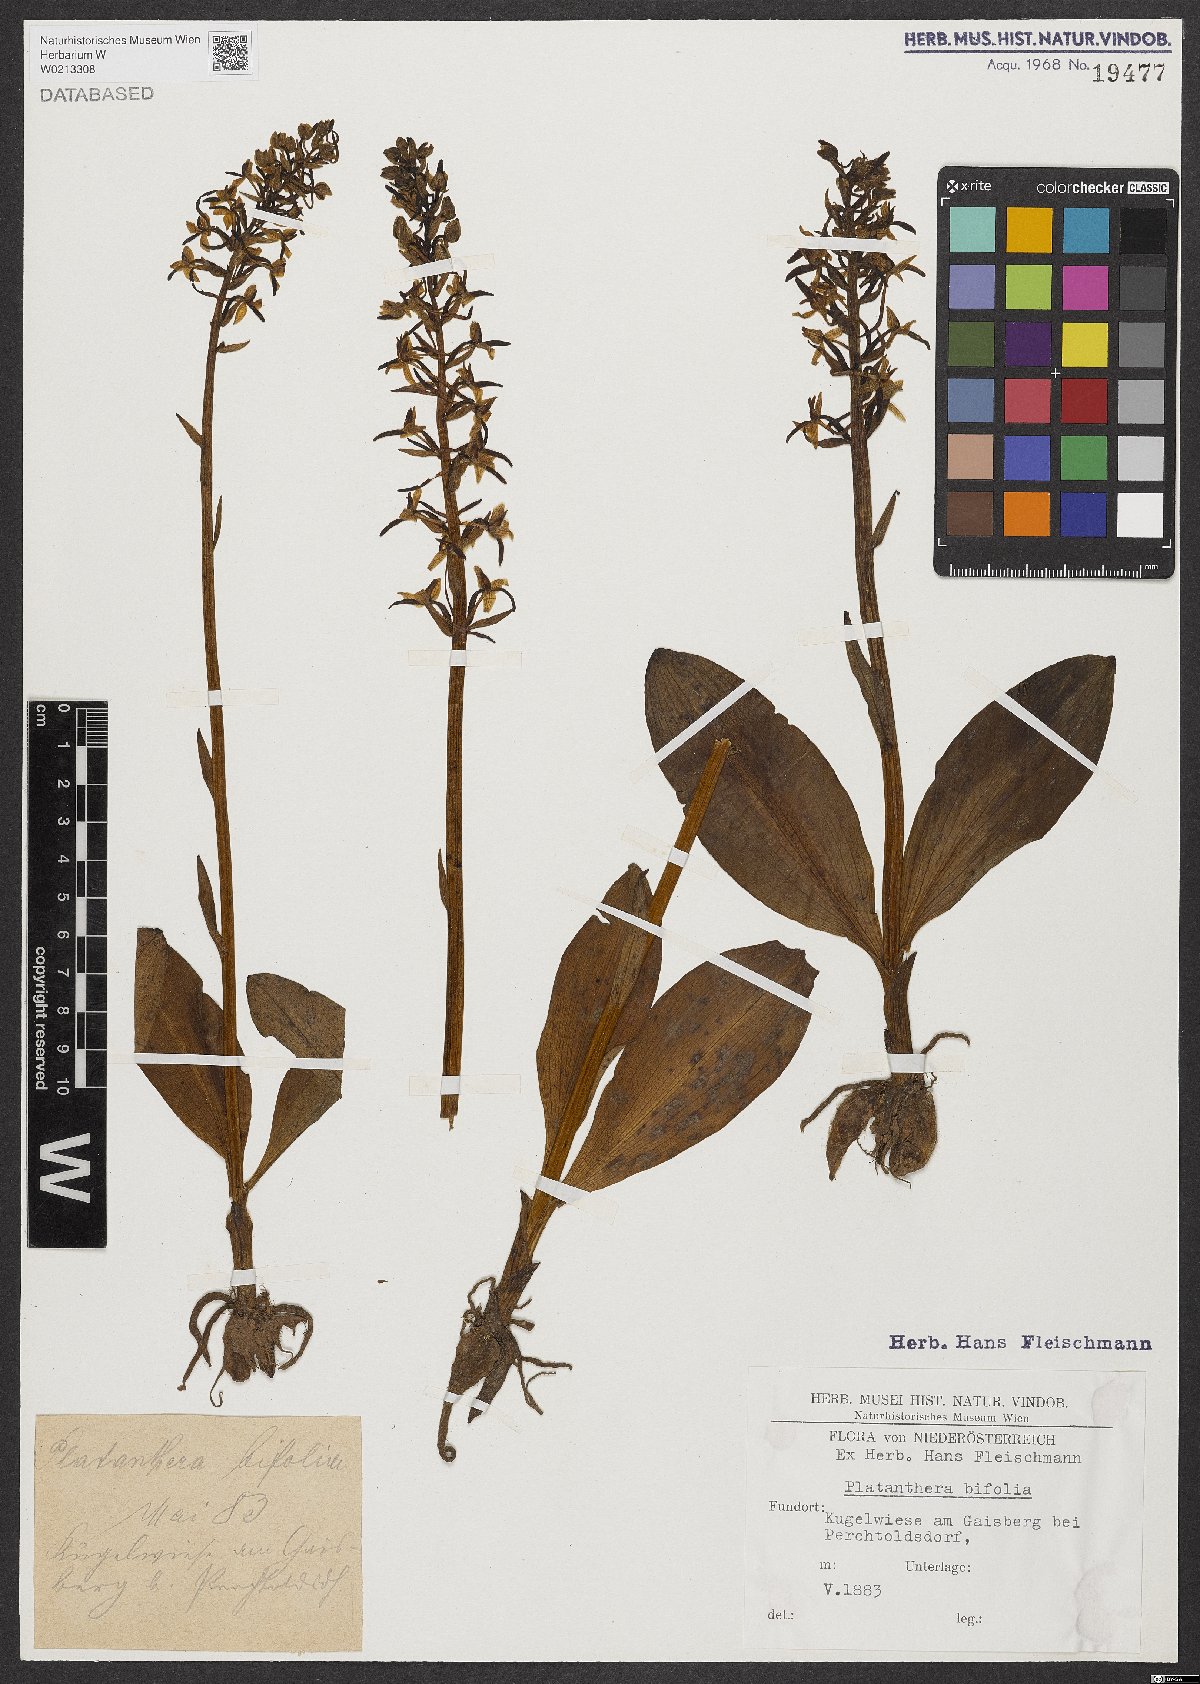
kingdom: Plantae
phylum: Tracheophyta
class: Liliopsida
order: Asparagales
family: Orchidaceae
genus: Platanthera
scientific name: Platanthera bifolia
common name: Lesser butterfly-orchid
